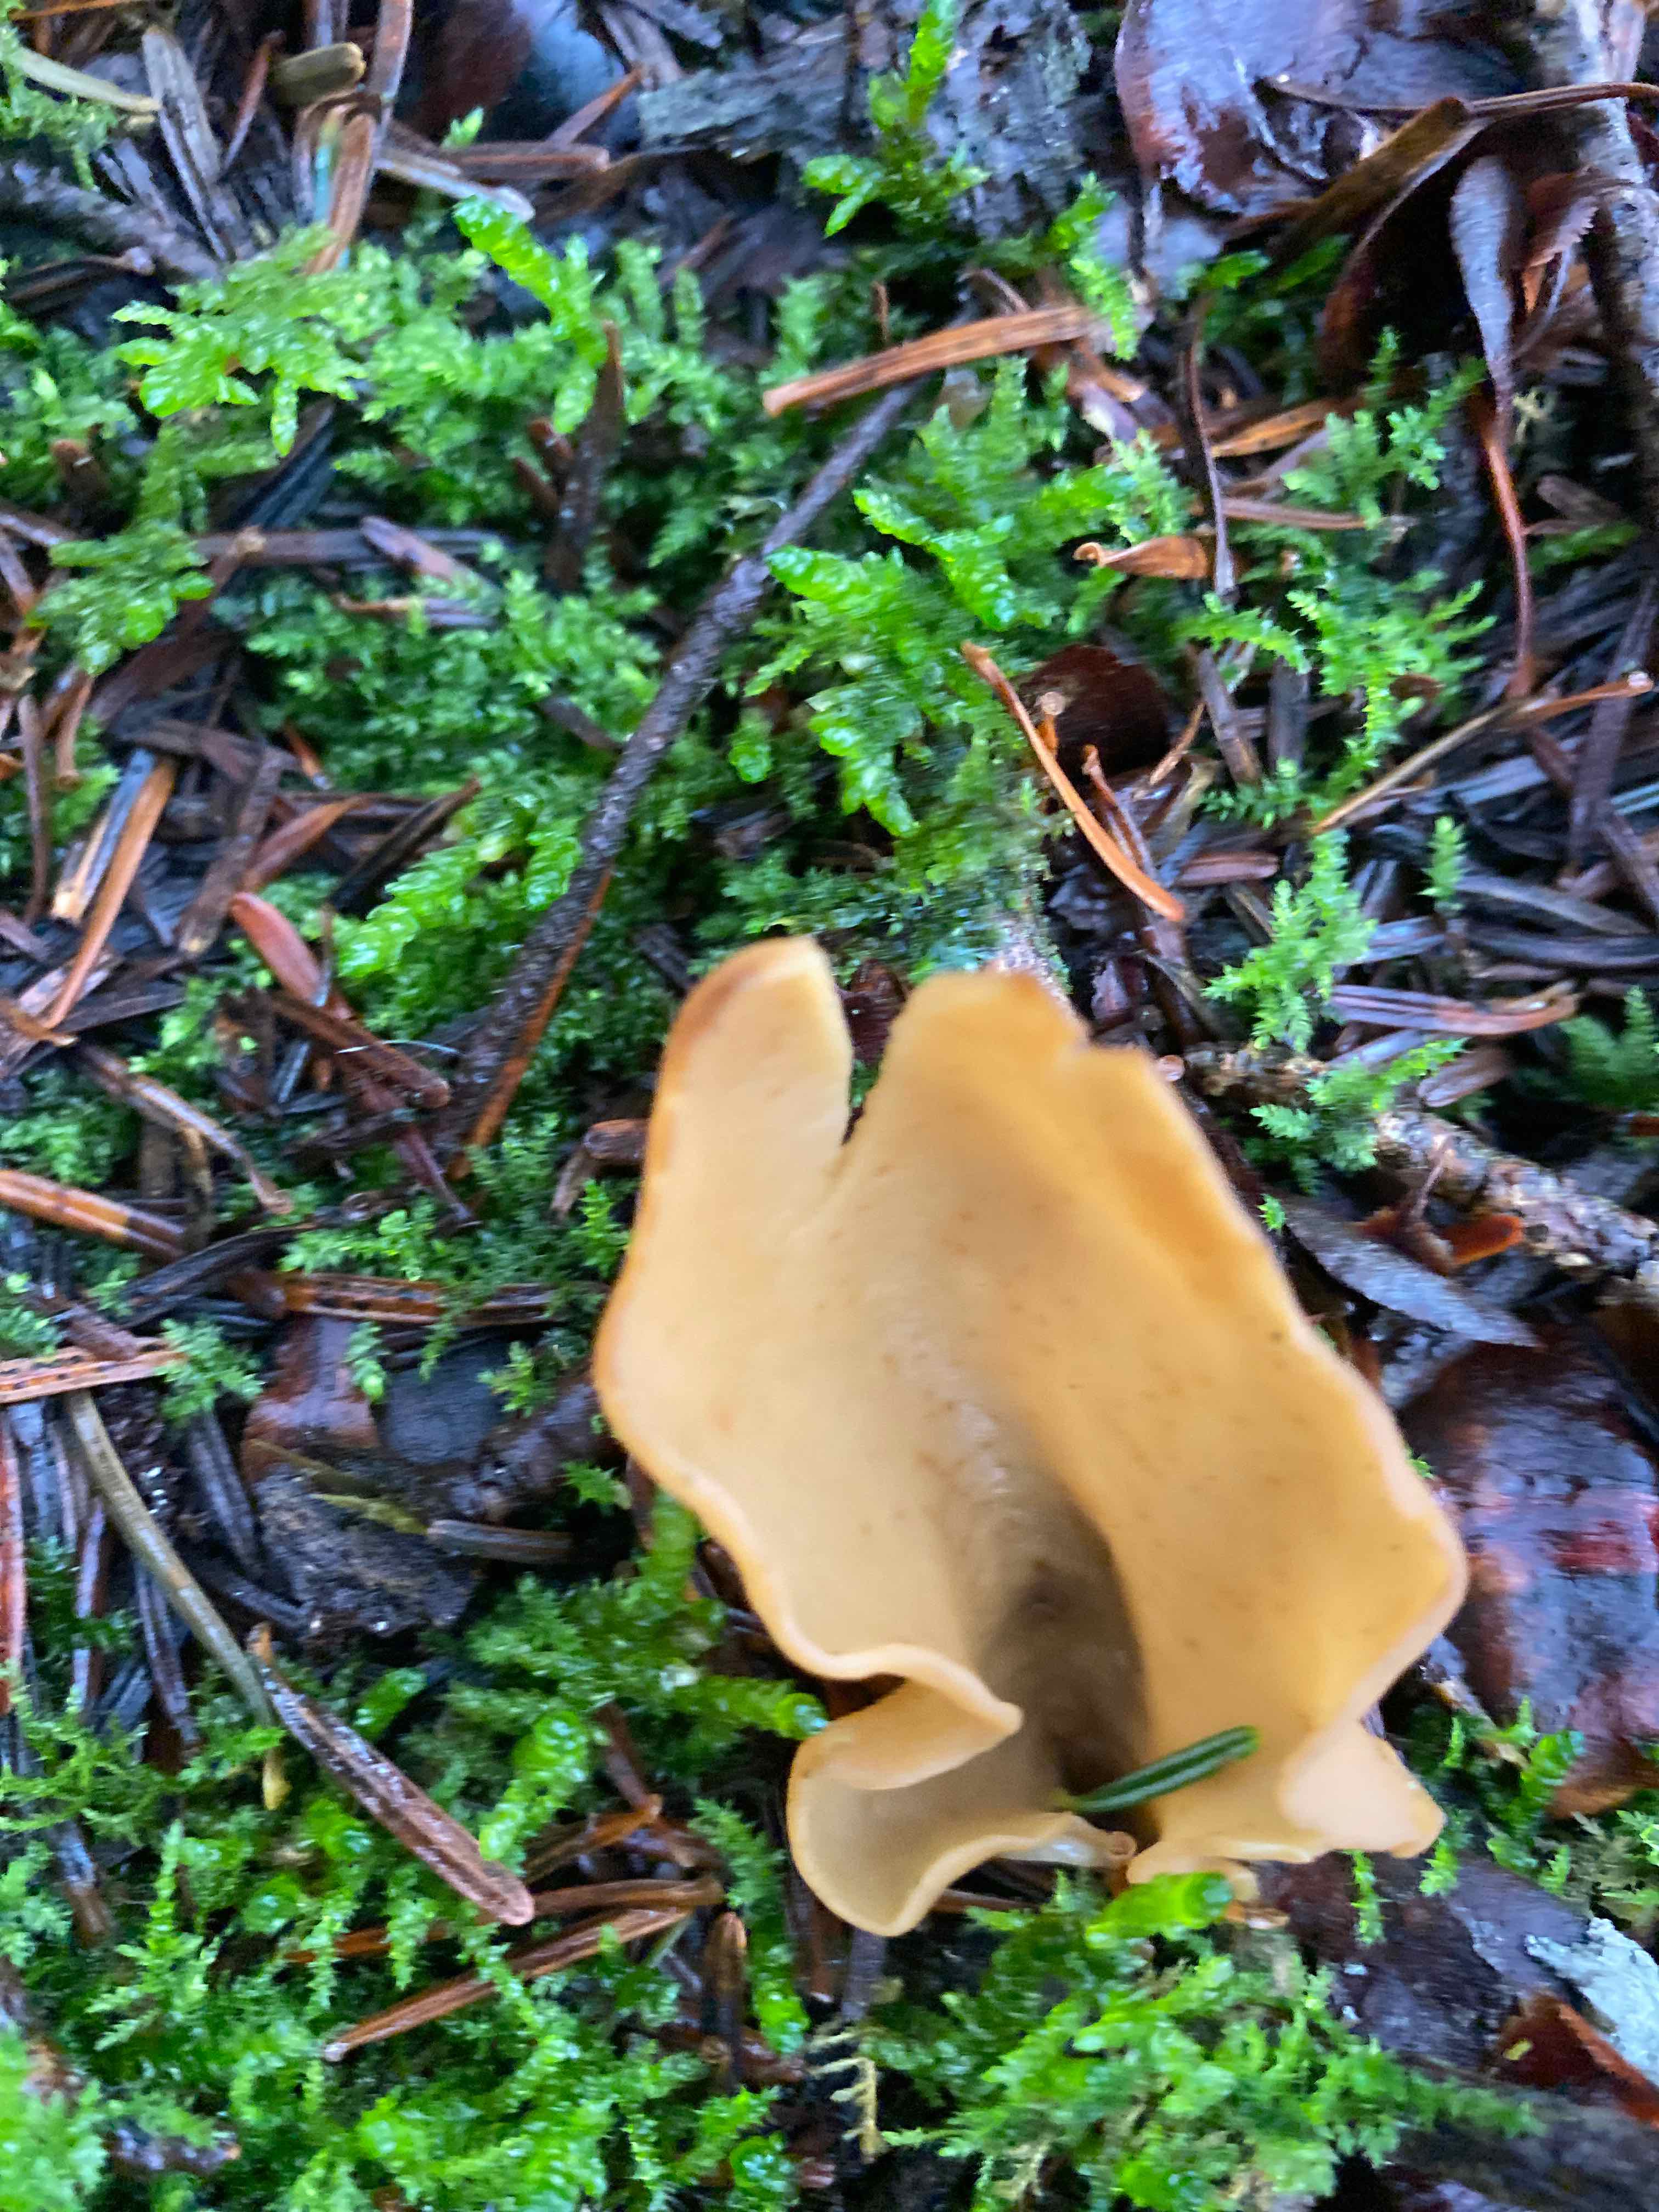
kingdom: Fungi
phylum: Ascomycota
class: Pezizomycetes
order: Pezizales
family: Otideaceae
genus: Otidea
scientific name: Otidea
